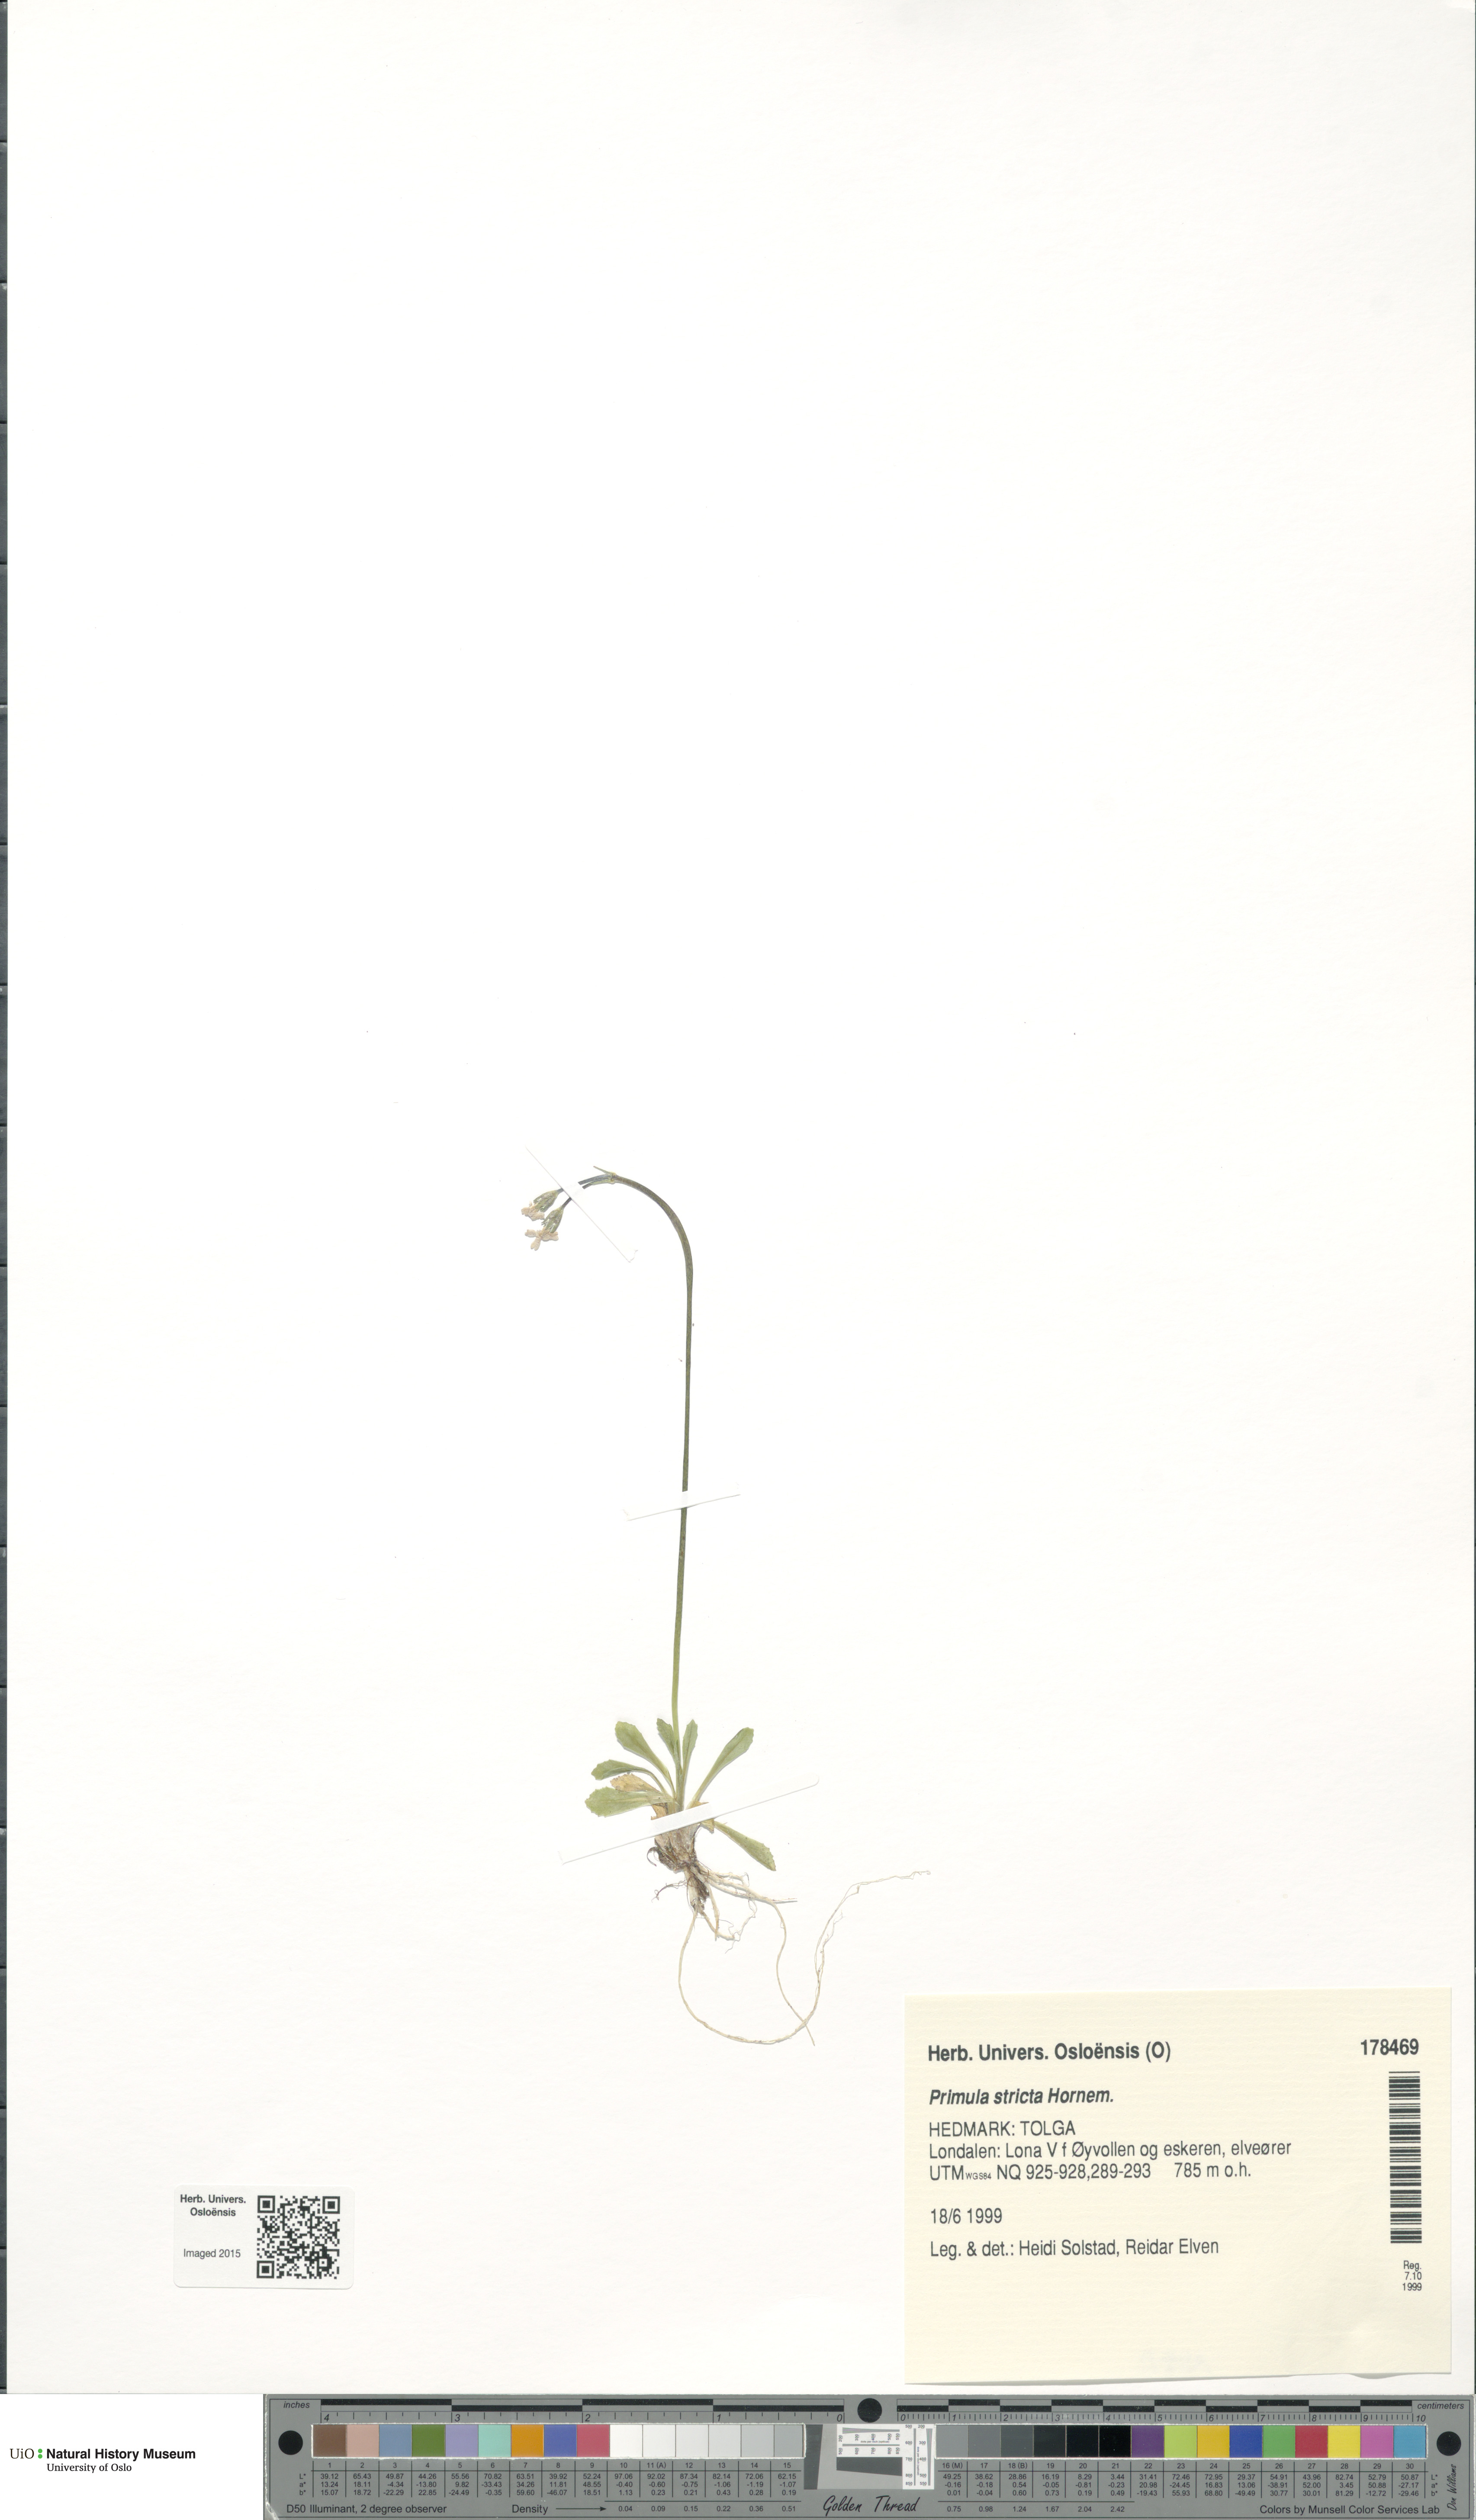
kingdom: Plantae
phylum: Tracheophyta
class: Magnoliopsida
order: Ericales
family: Primulaceae
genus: Primula
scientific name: Primula stricta
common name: Coastal primrose
